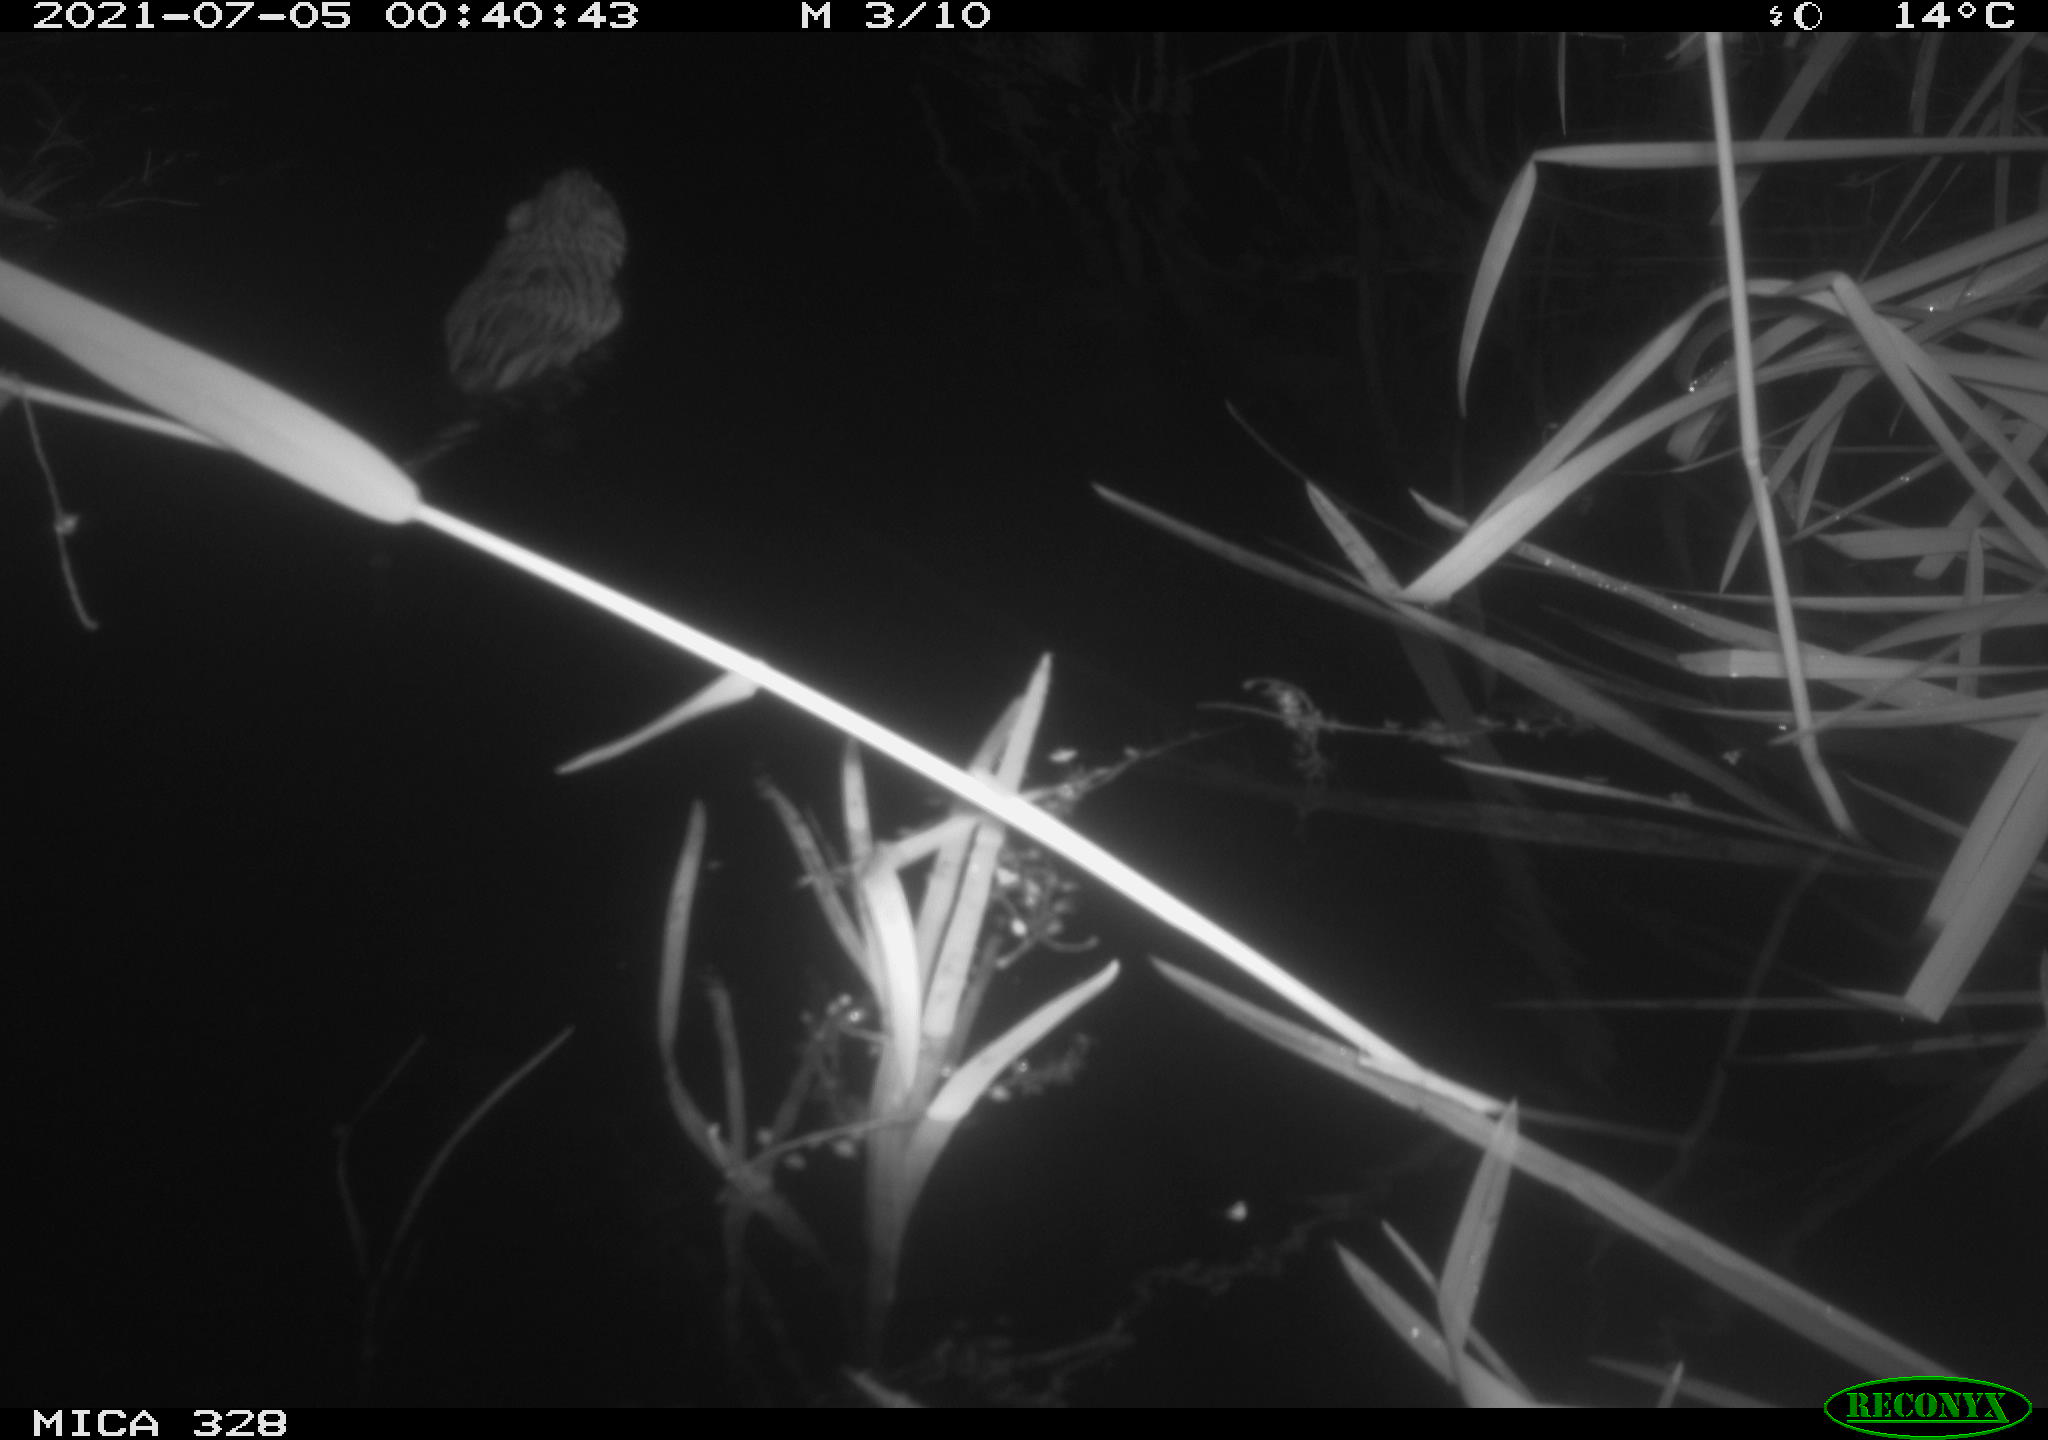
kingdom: Animalia
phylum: Chordata
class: Mammalia
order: Rodentia
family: Cricetidae
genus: Ondatra
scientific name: Ondatra zibethicus
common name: Muskrat
